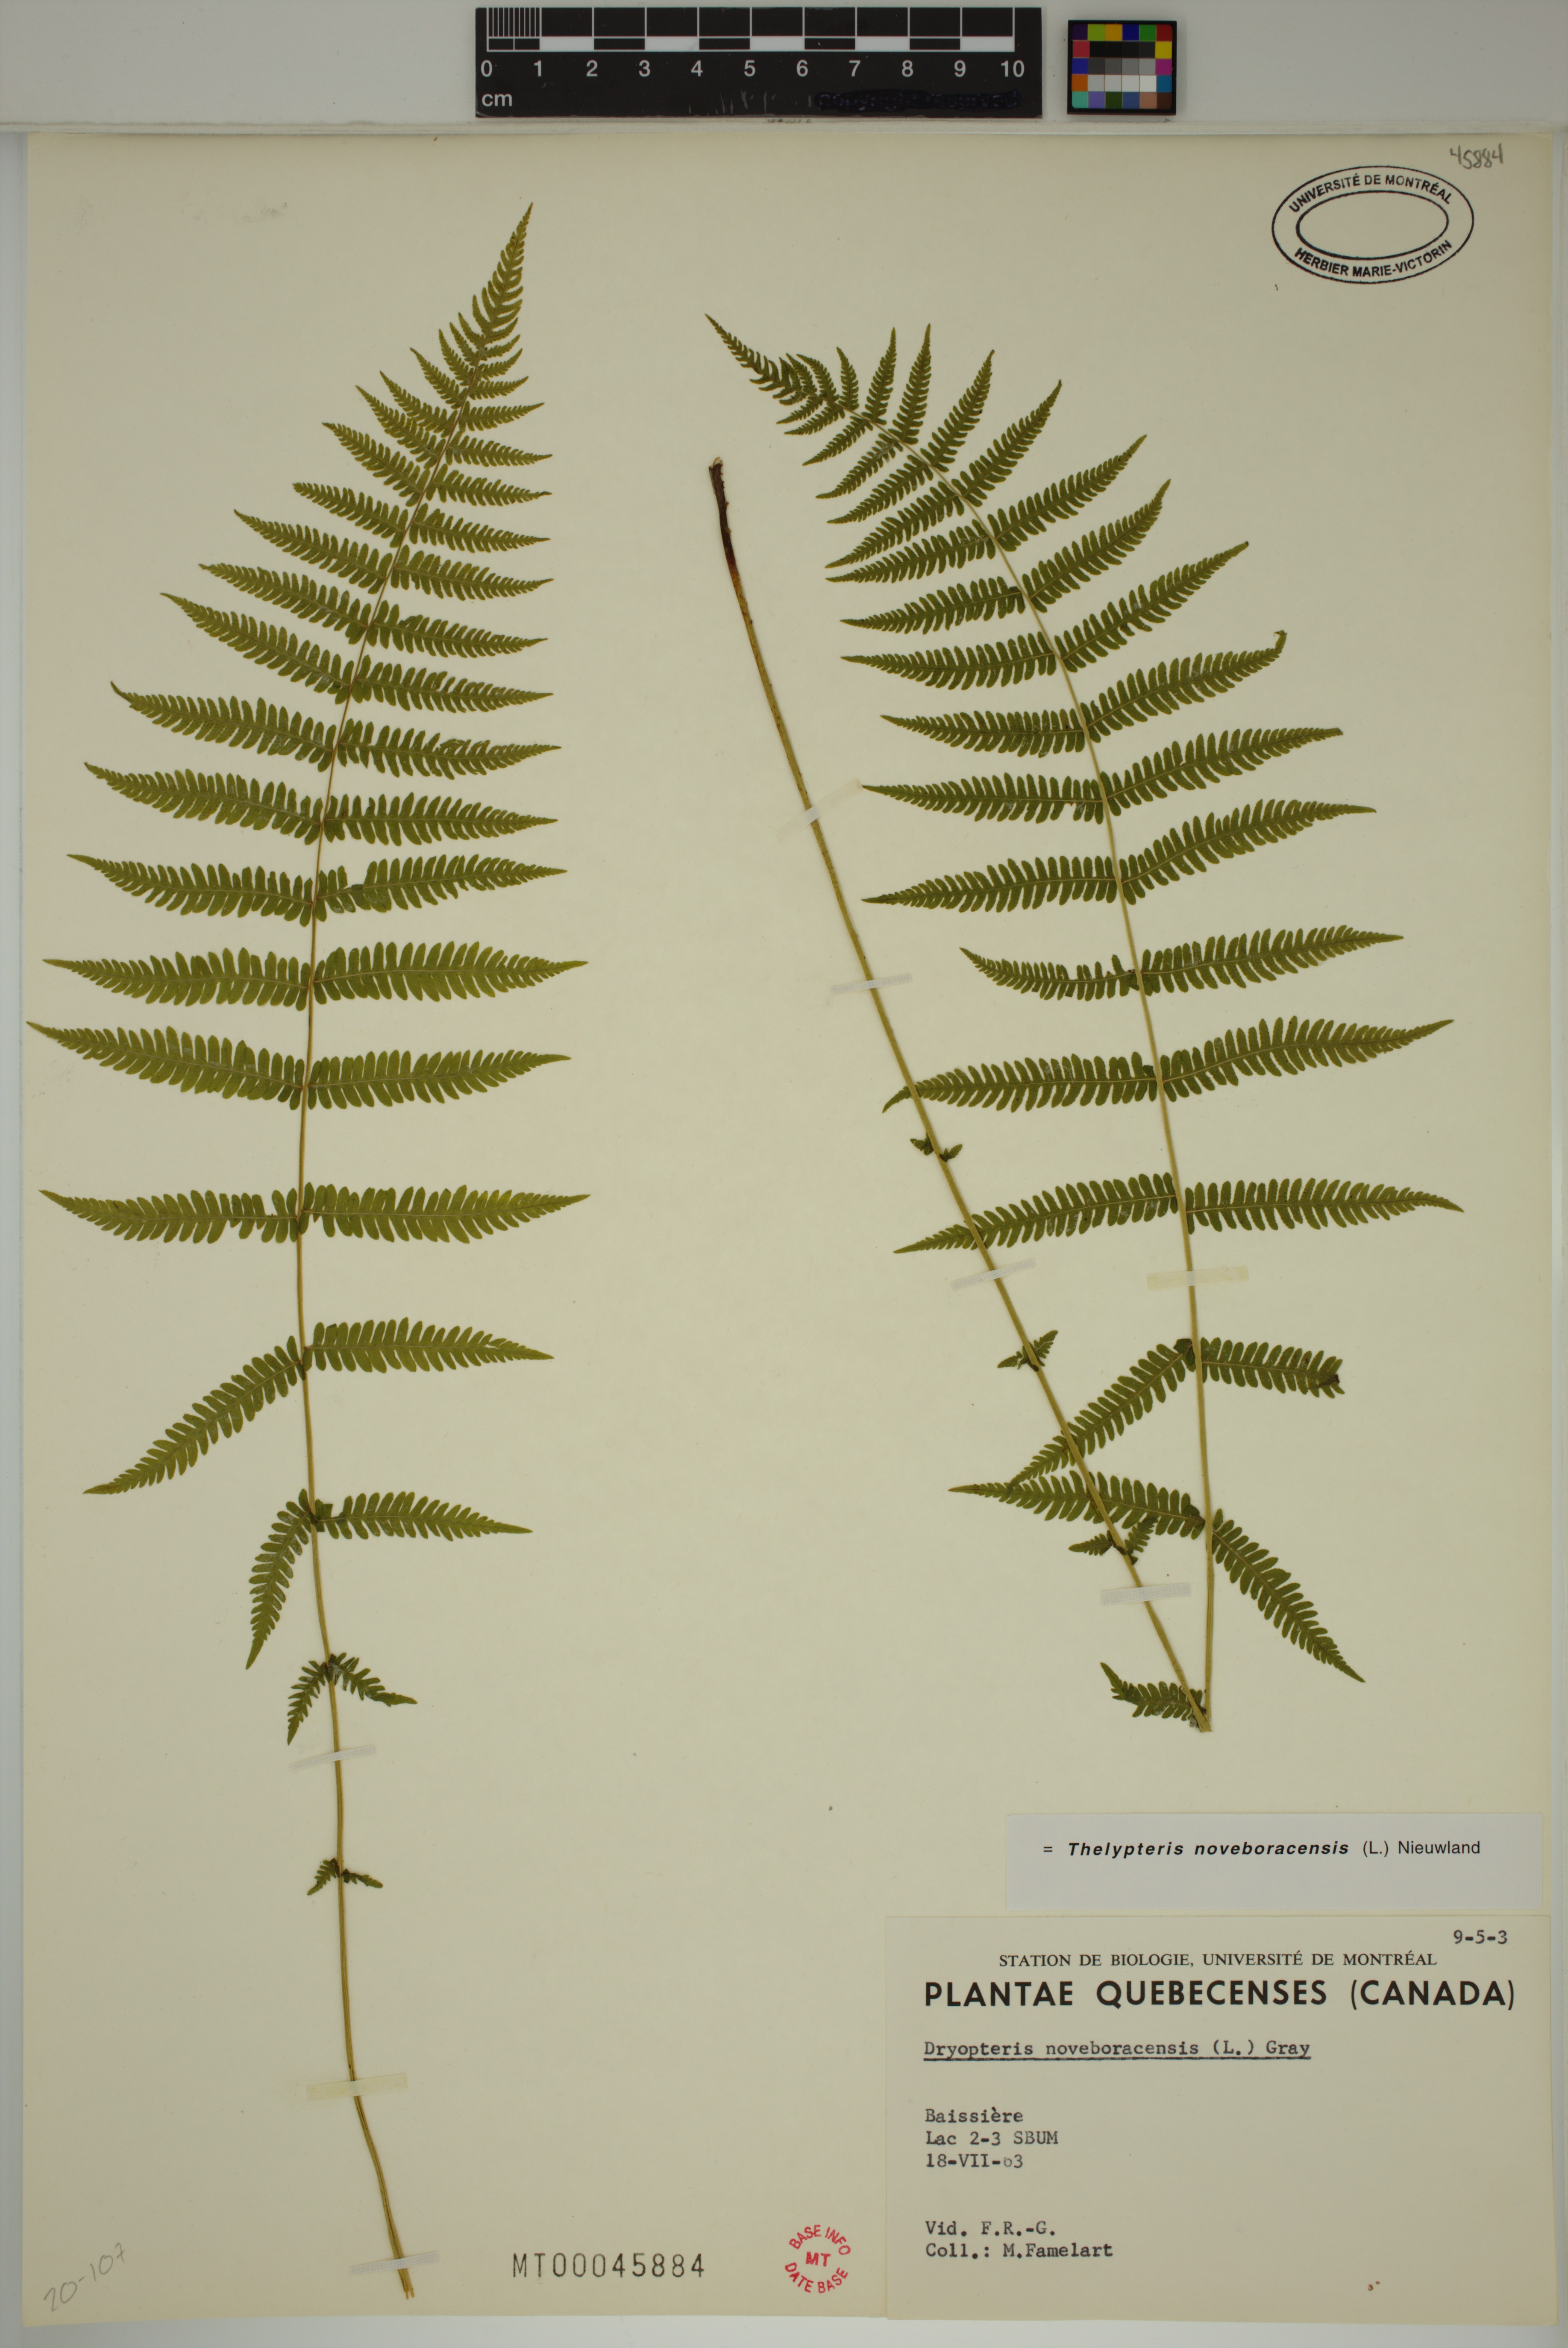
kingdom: Plantae
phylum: Tracheophyta
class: Polypodiopsida
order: Polypodiales
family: Thelypteridaceae
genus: Amauropelta
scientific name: Amauropelta noveboracensis
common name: New york fern
